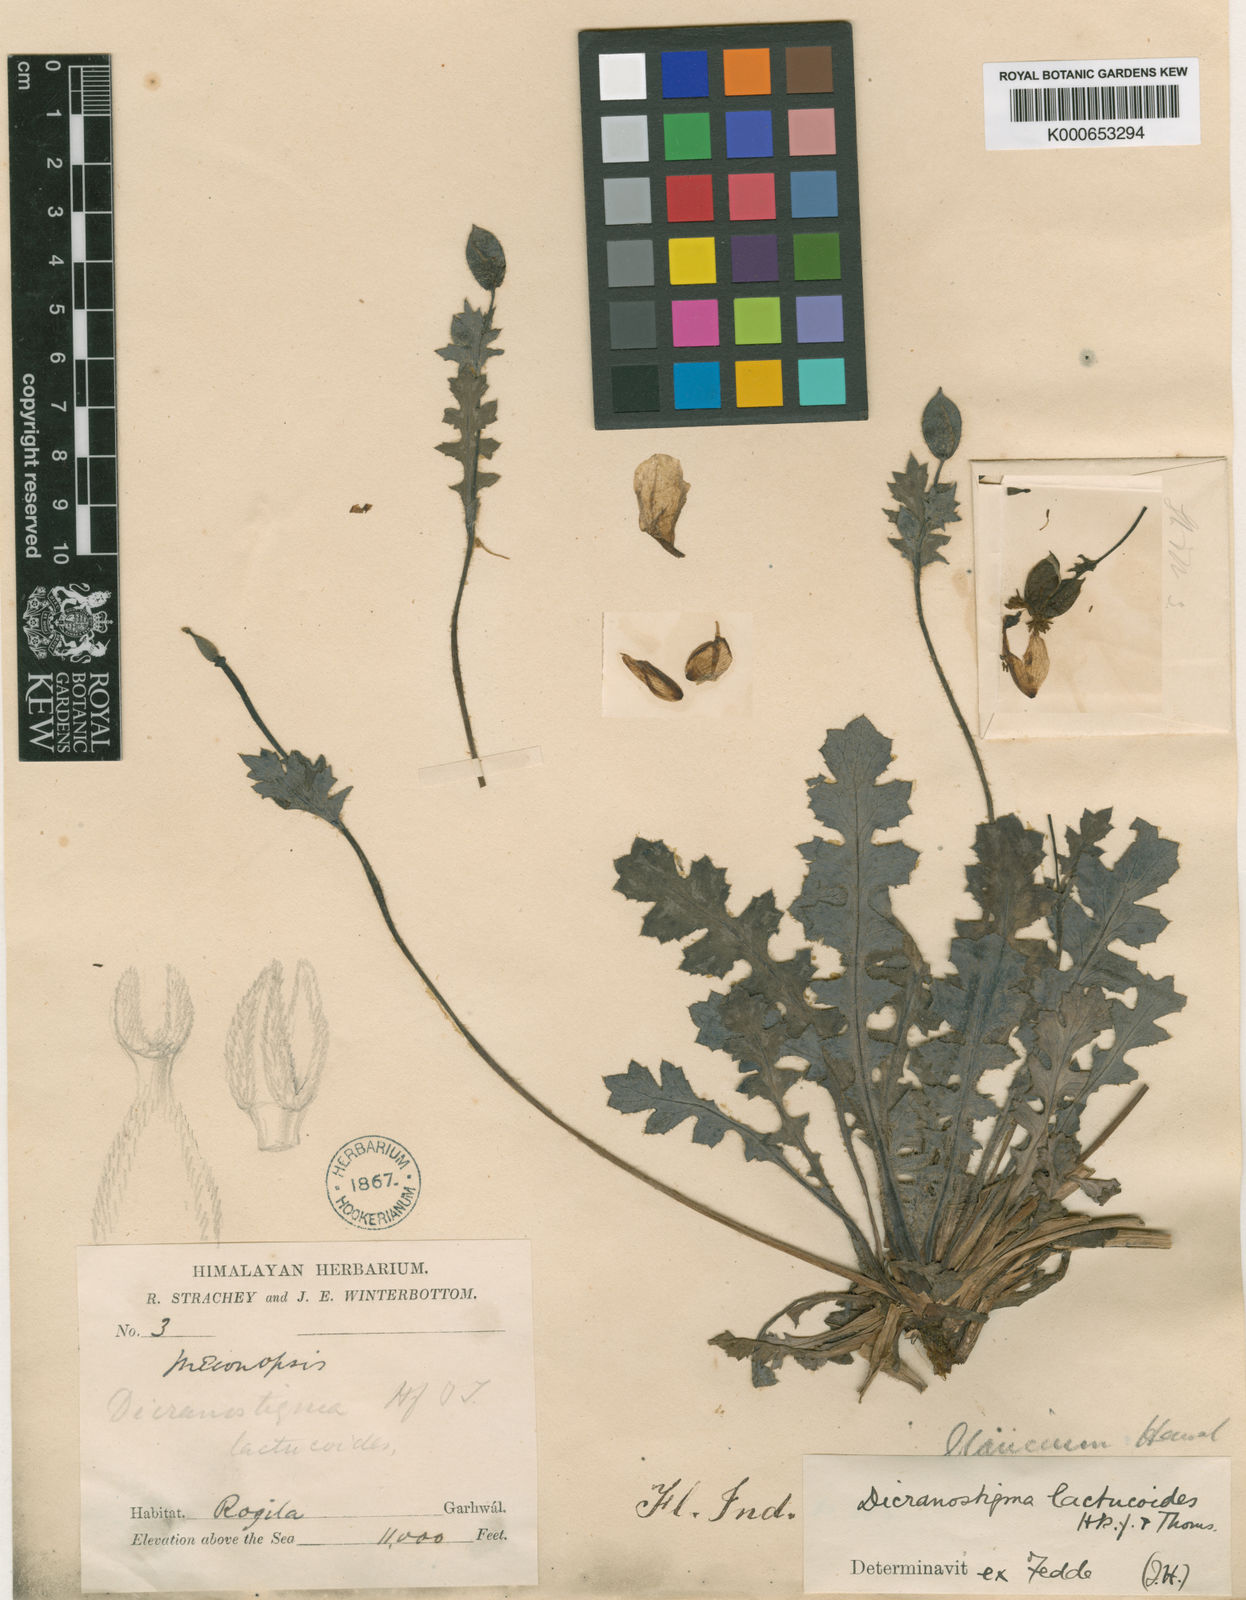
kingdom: Plantae
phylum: Tracheophyta
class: Magnoliopsida
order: Ranunculales
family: Papaveraceae
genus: Dicranostigma
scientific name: Dicranostigma lactucoides
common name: Himalayan horn-poppy
